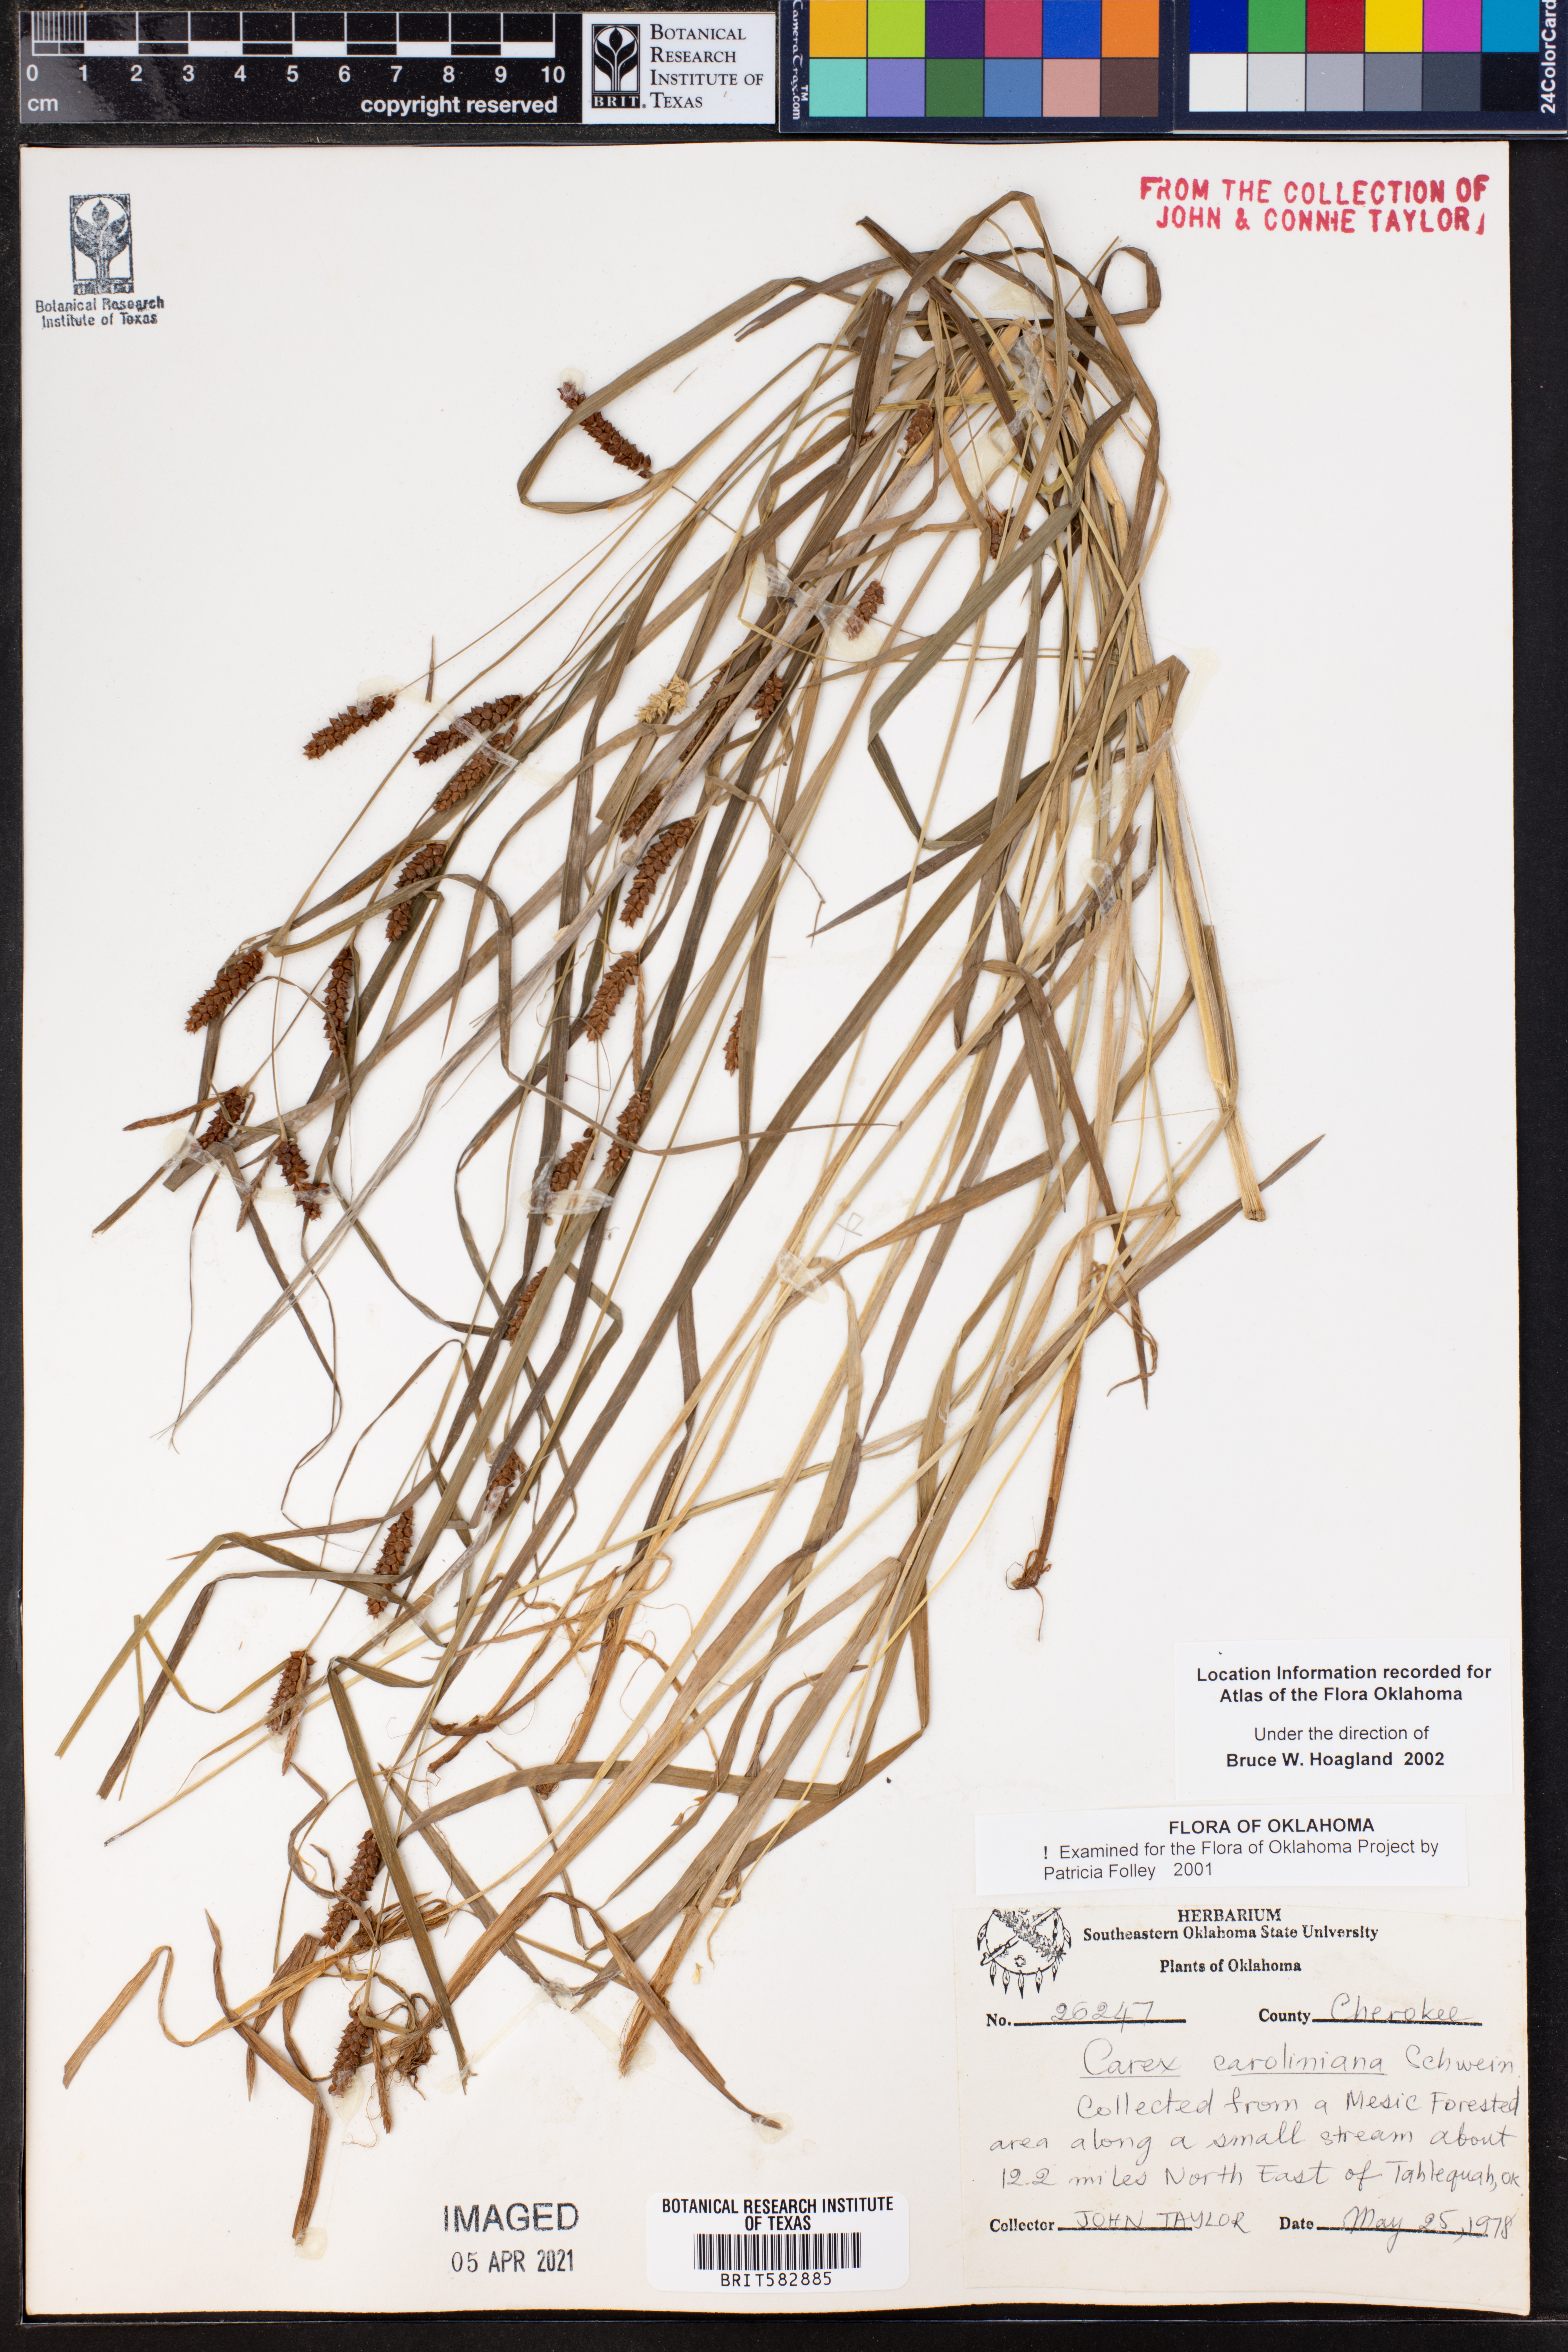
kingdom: Plantae
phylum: Tracheophyta
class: Liliopsida
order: Poales
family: Cyperaceae
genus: Carex
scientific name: Carex caroliniana
